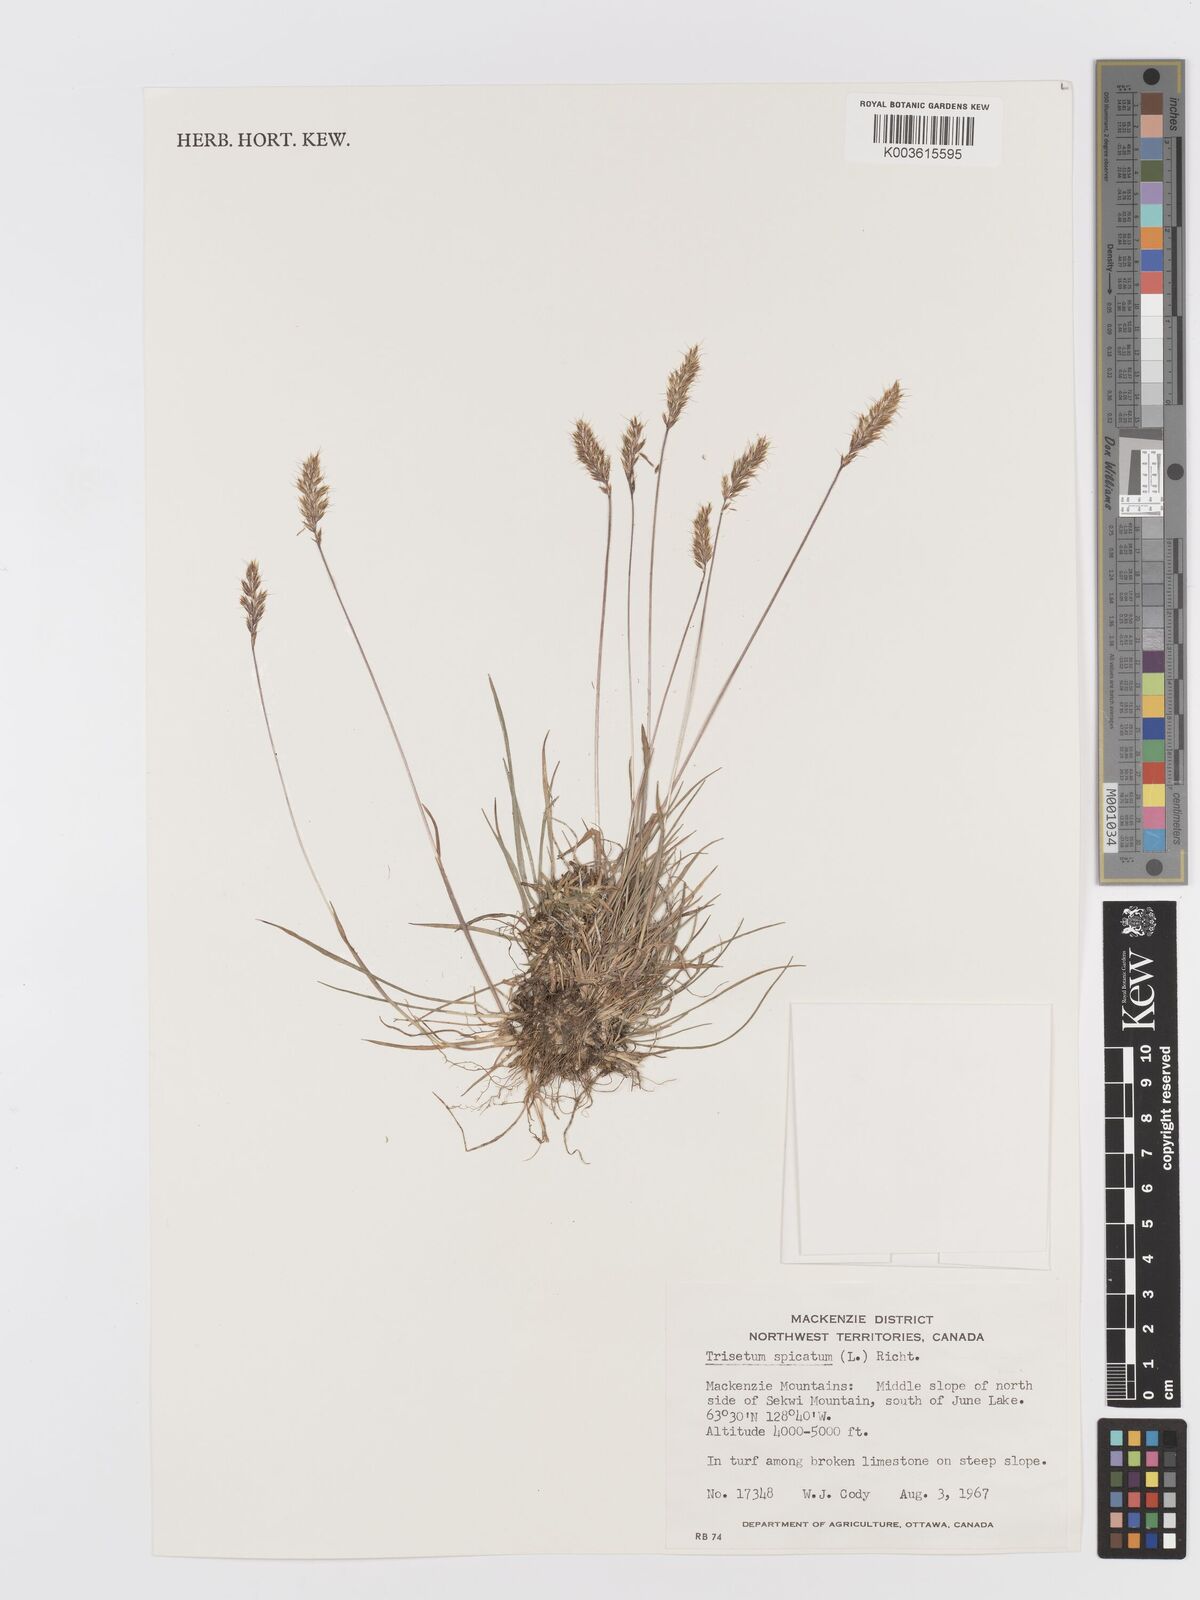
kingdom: Plantae
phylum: Tracheophyta
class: Liliopsida
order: Poales
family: Poaceae
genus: Koeleria
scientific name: Koeleria spicata
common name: Mountain trisetum
